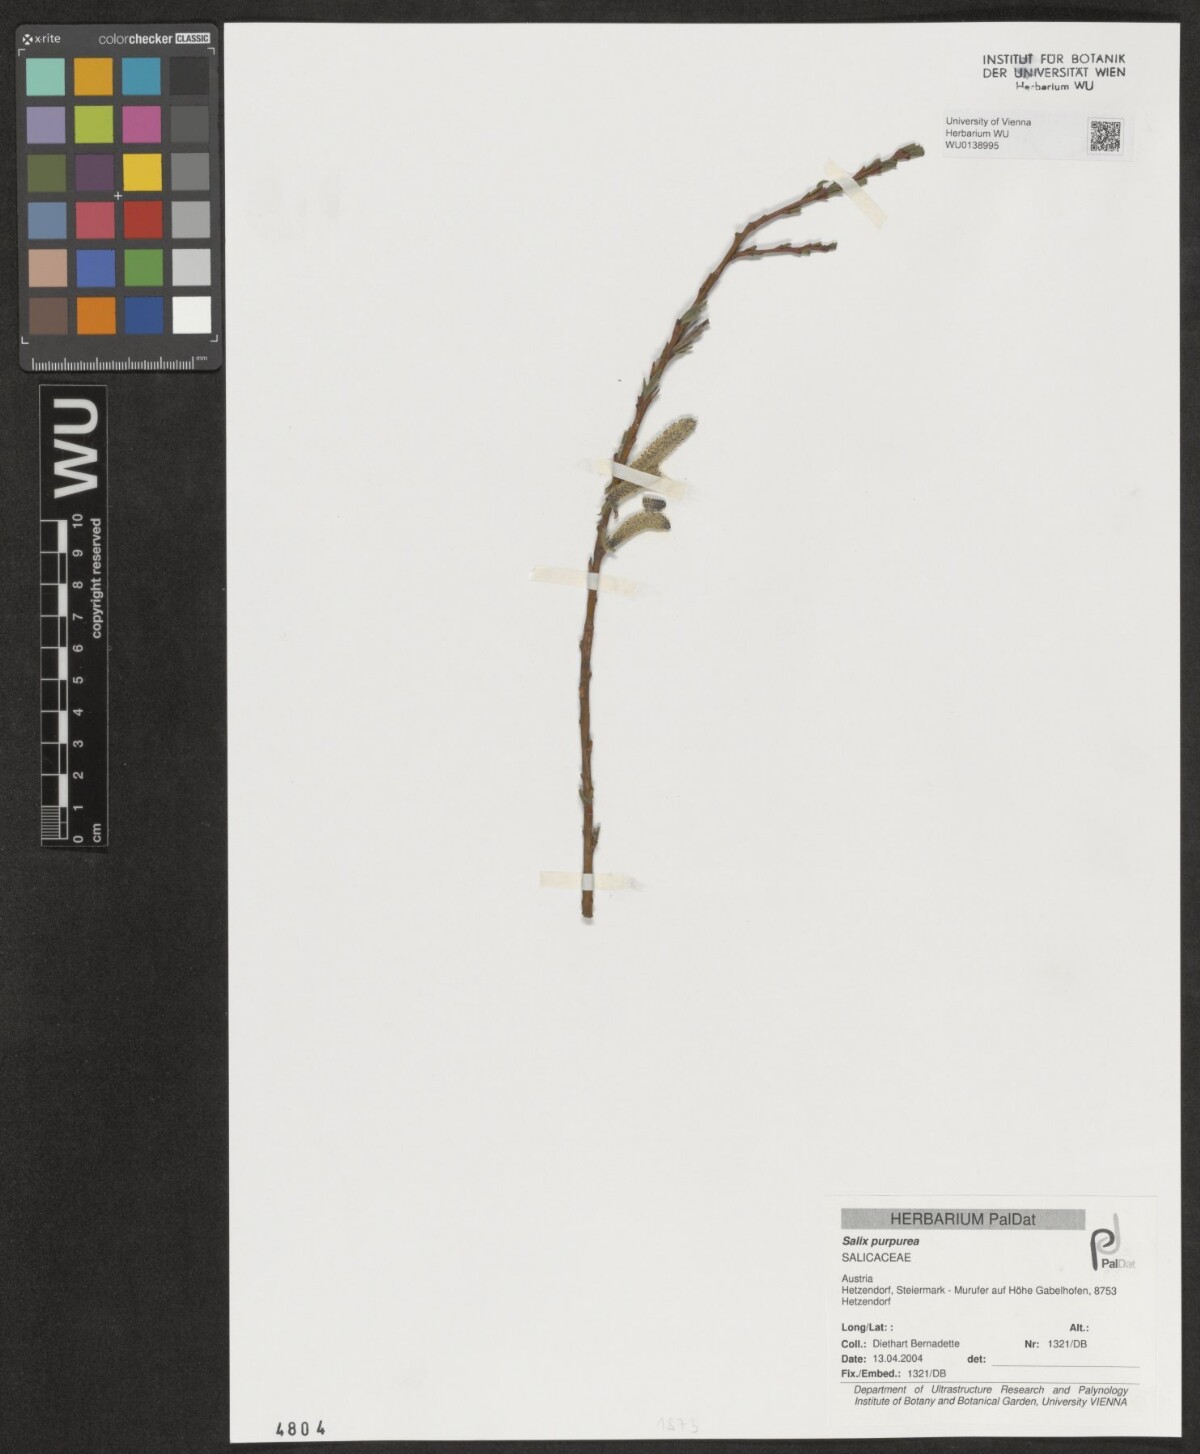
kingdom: Plantae
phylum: Tracheophyta
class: Magnoliopsida
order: Malpighiales
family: Salicaceae
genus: Salix
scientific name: Salix purpurea
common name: Purple willow
